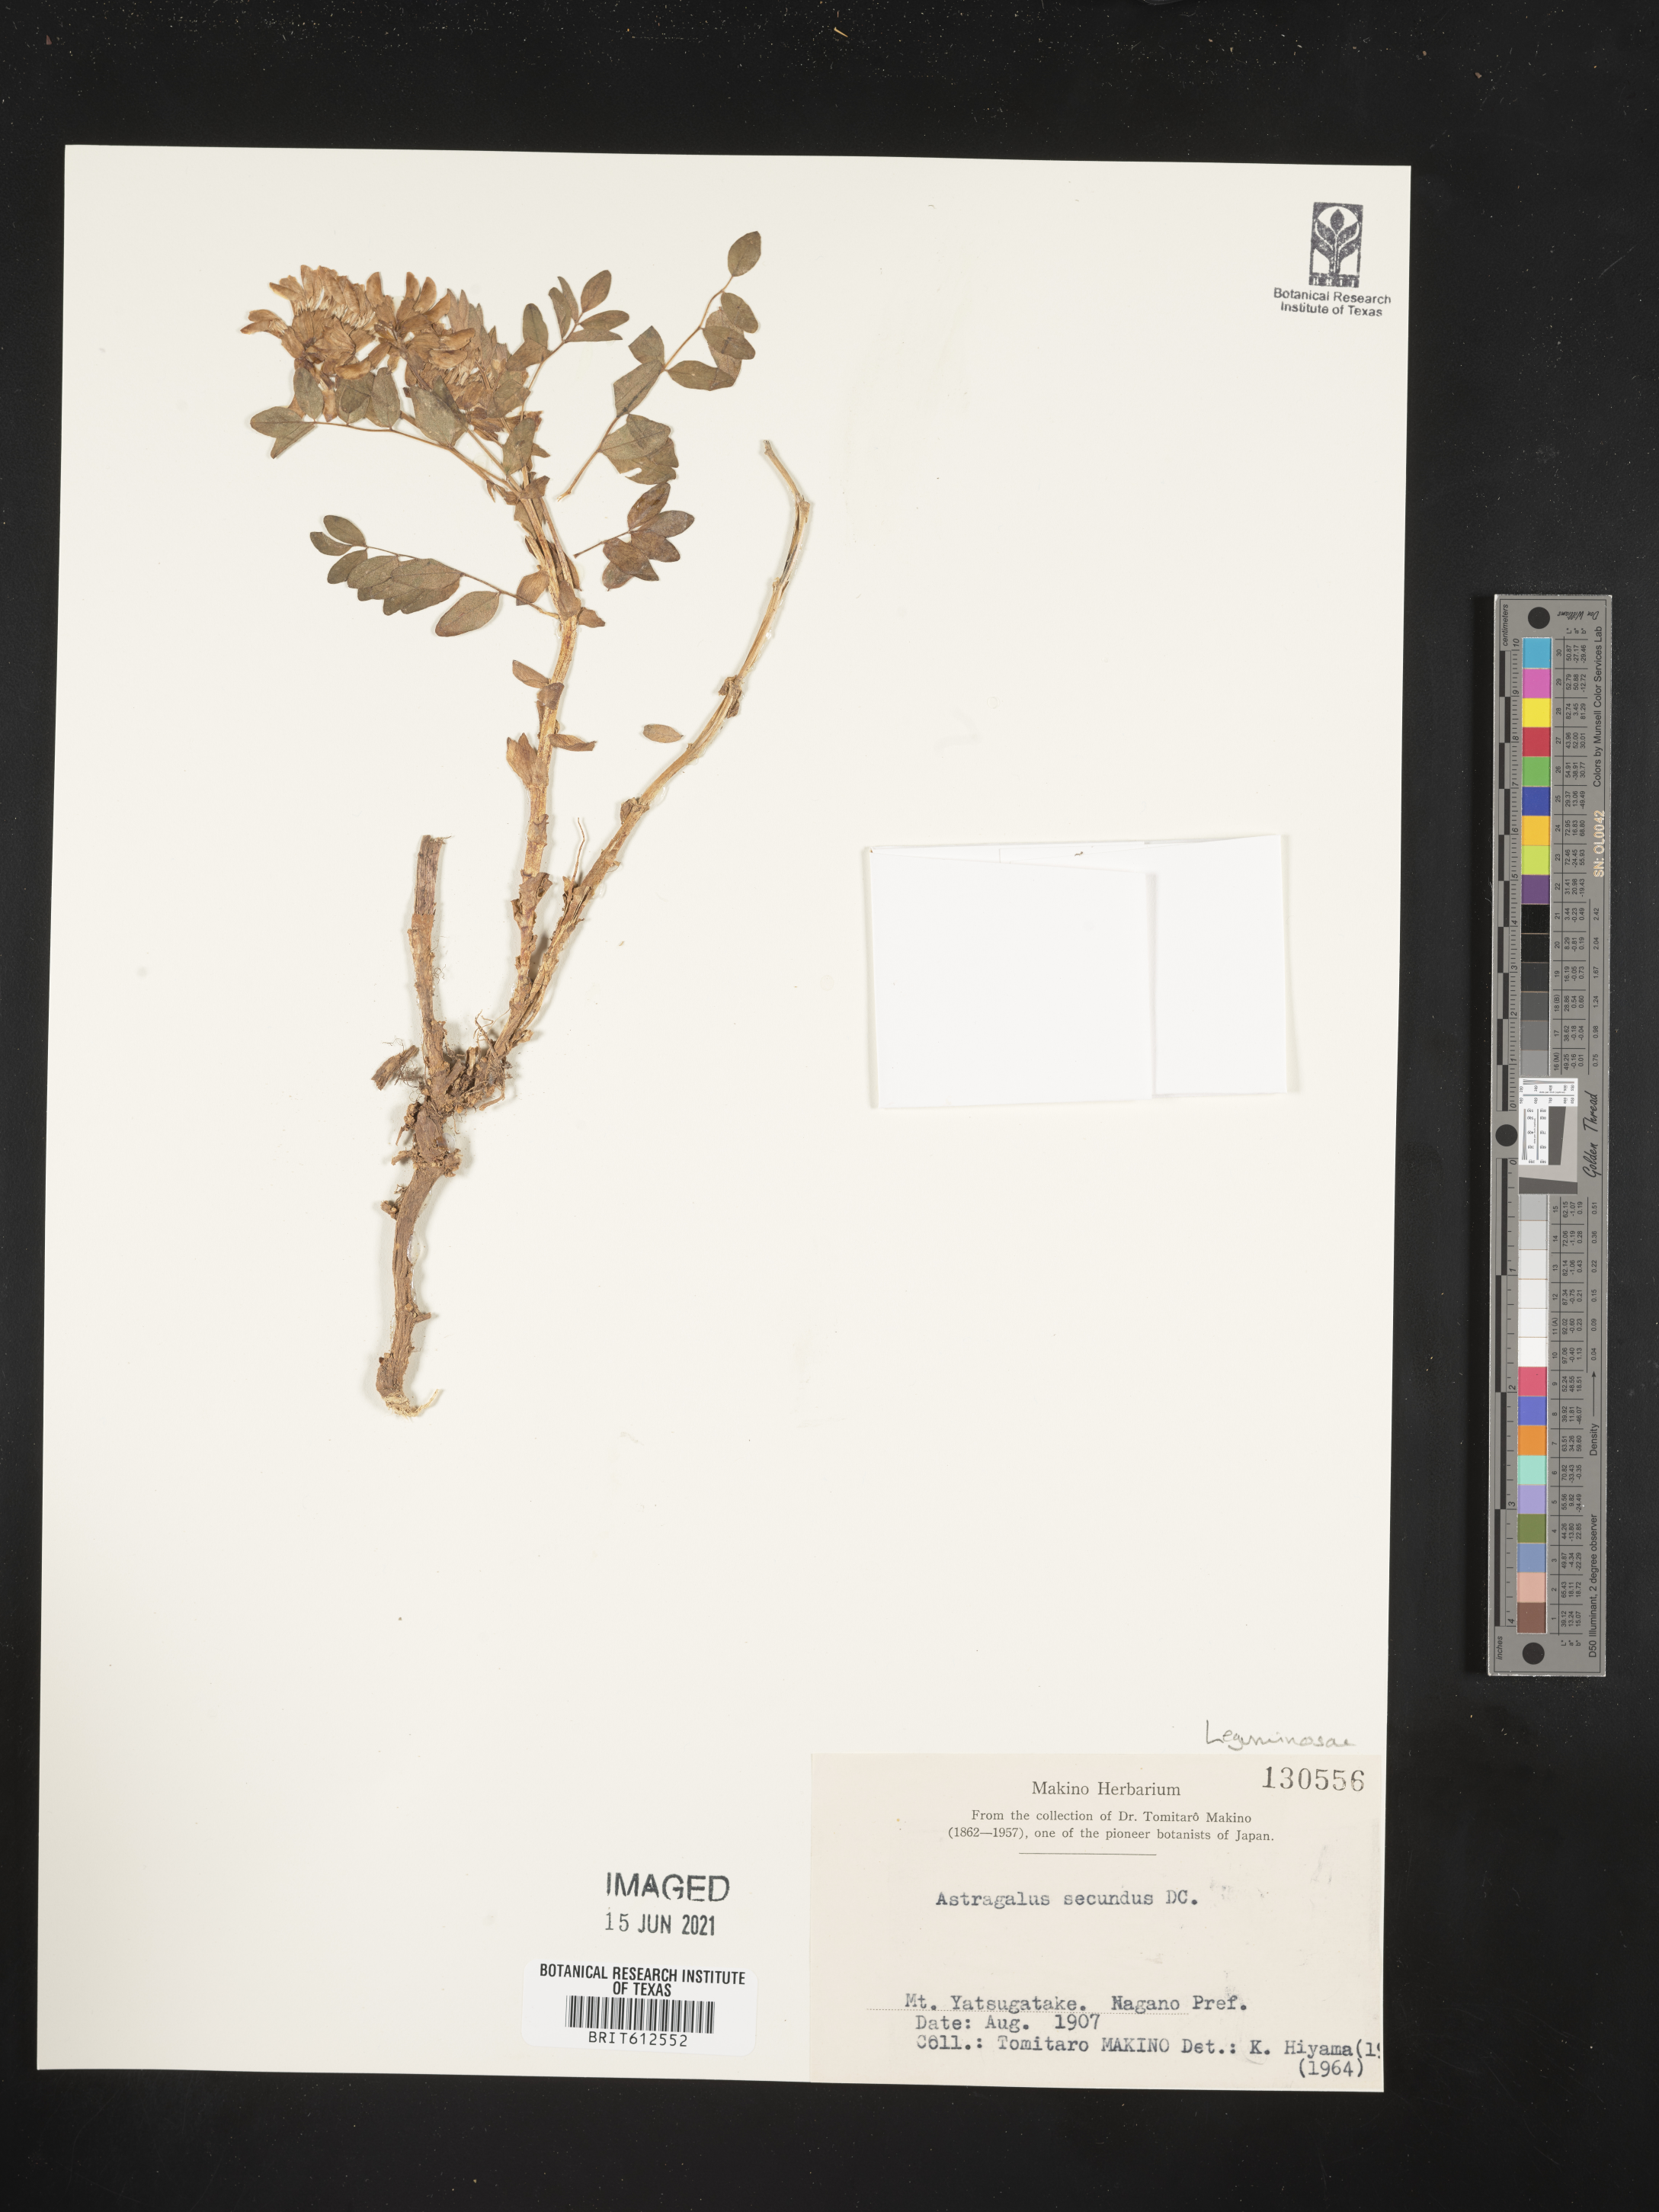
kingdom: Plantae
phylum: Tracheophyta
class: Magnoliopsida
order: Fabales
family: Fabaceae
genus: Astragalus
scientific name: Astragalus frigidus
